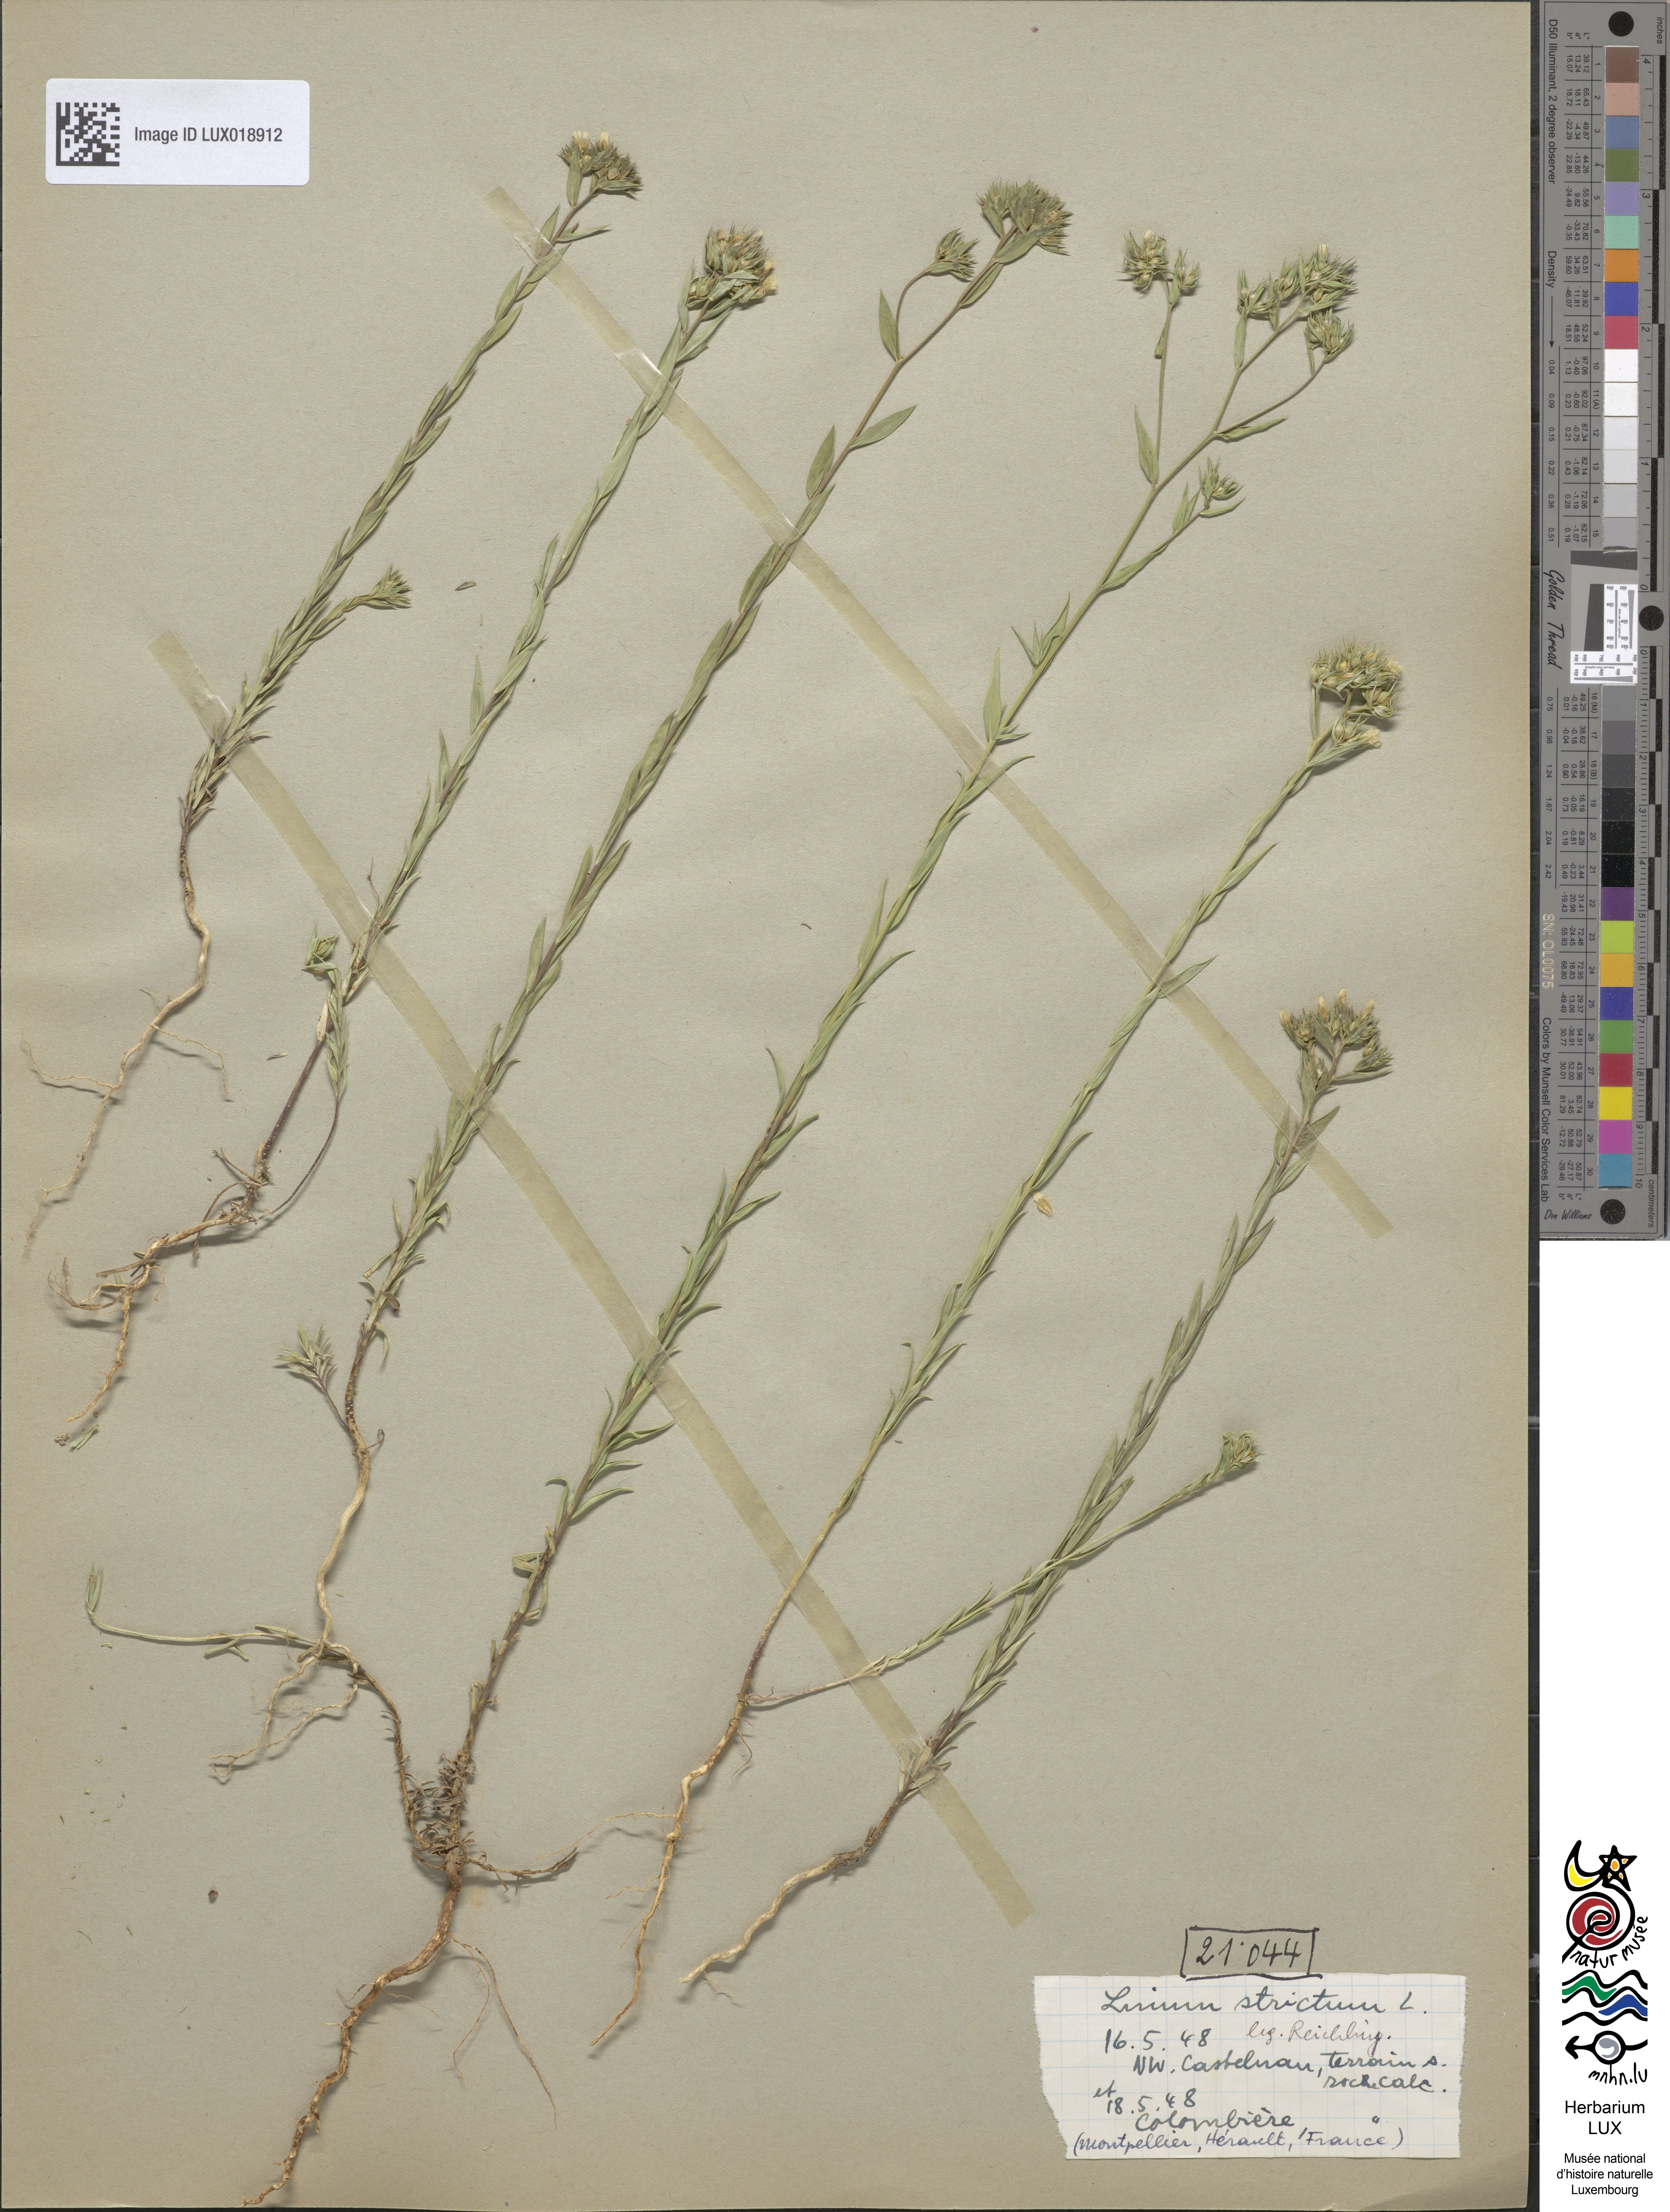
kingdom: Plantae
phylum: Tracheophyta
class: Magnoliopsida
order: Malpighiales
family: Linaceae
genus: Linum
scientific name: Linum strictum
